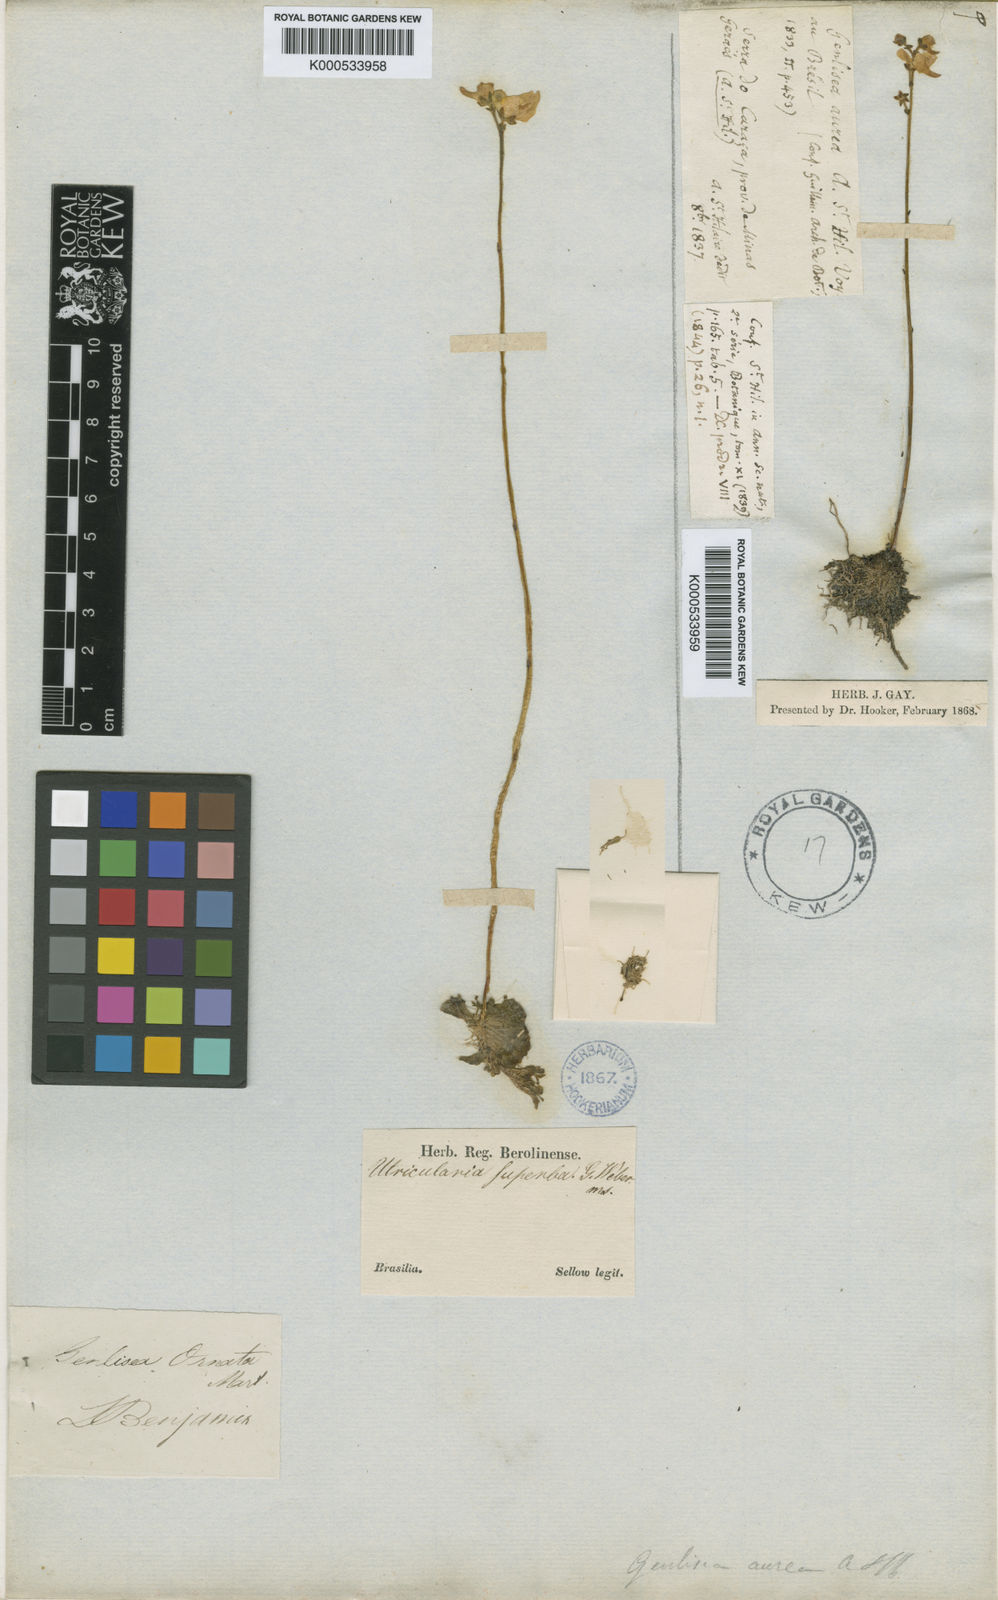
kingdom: Plantae
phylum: Tracheophyta
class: Magnoliopsida
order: Lamiales
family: Lentibulariaceae
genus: Genlisea
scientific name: Genlisea aurea
